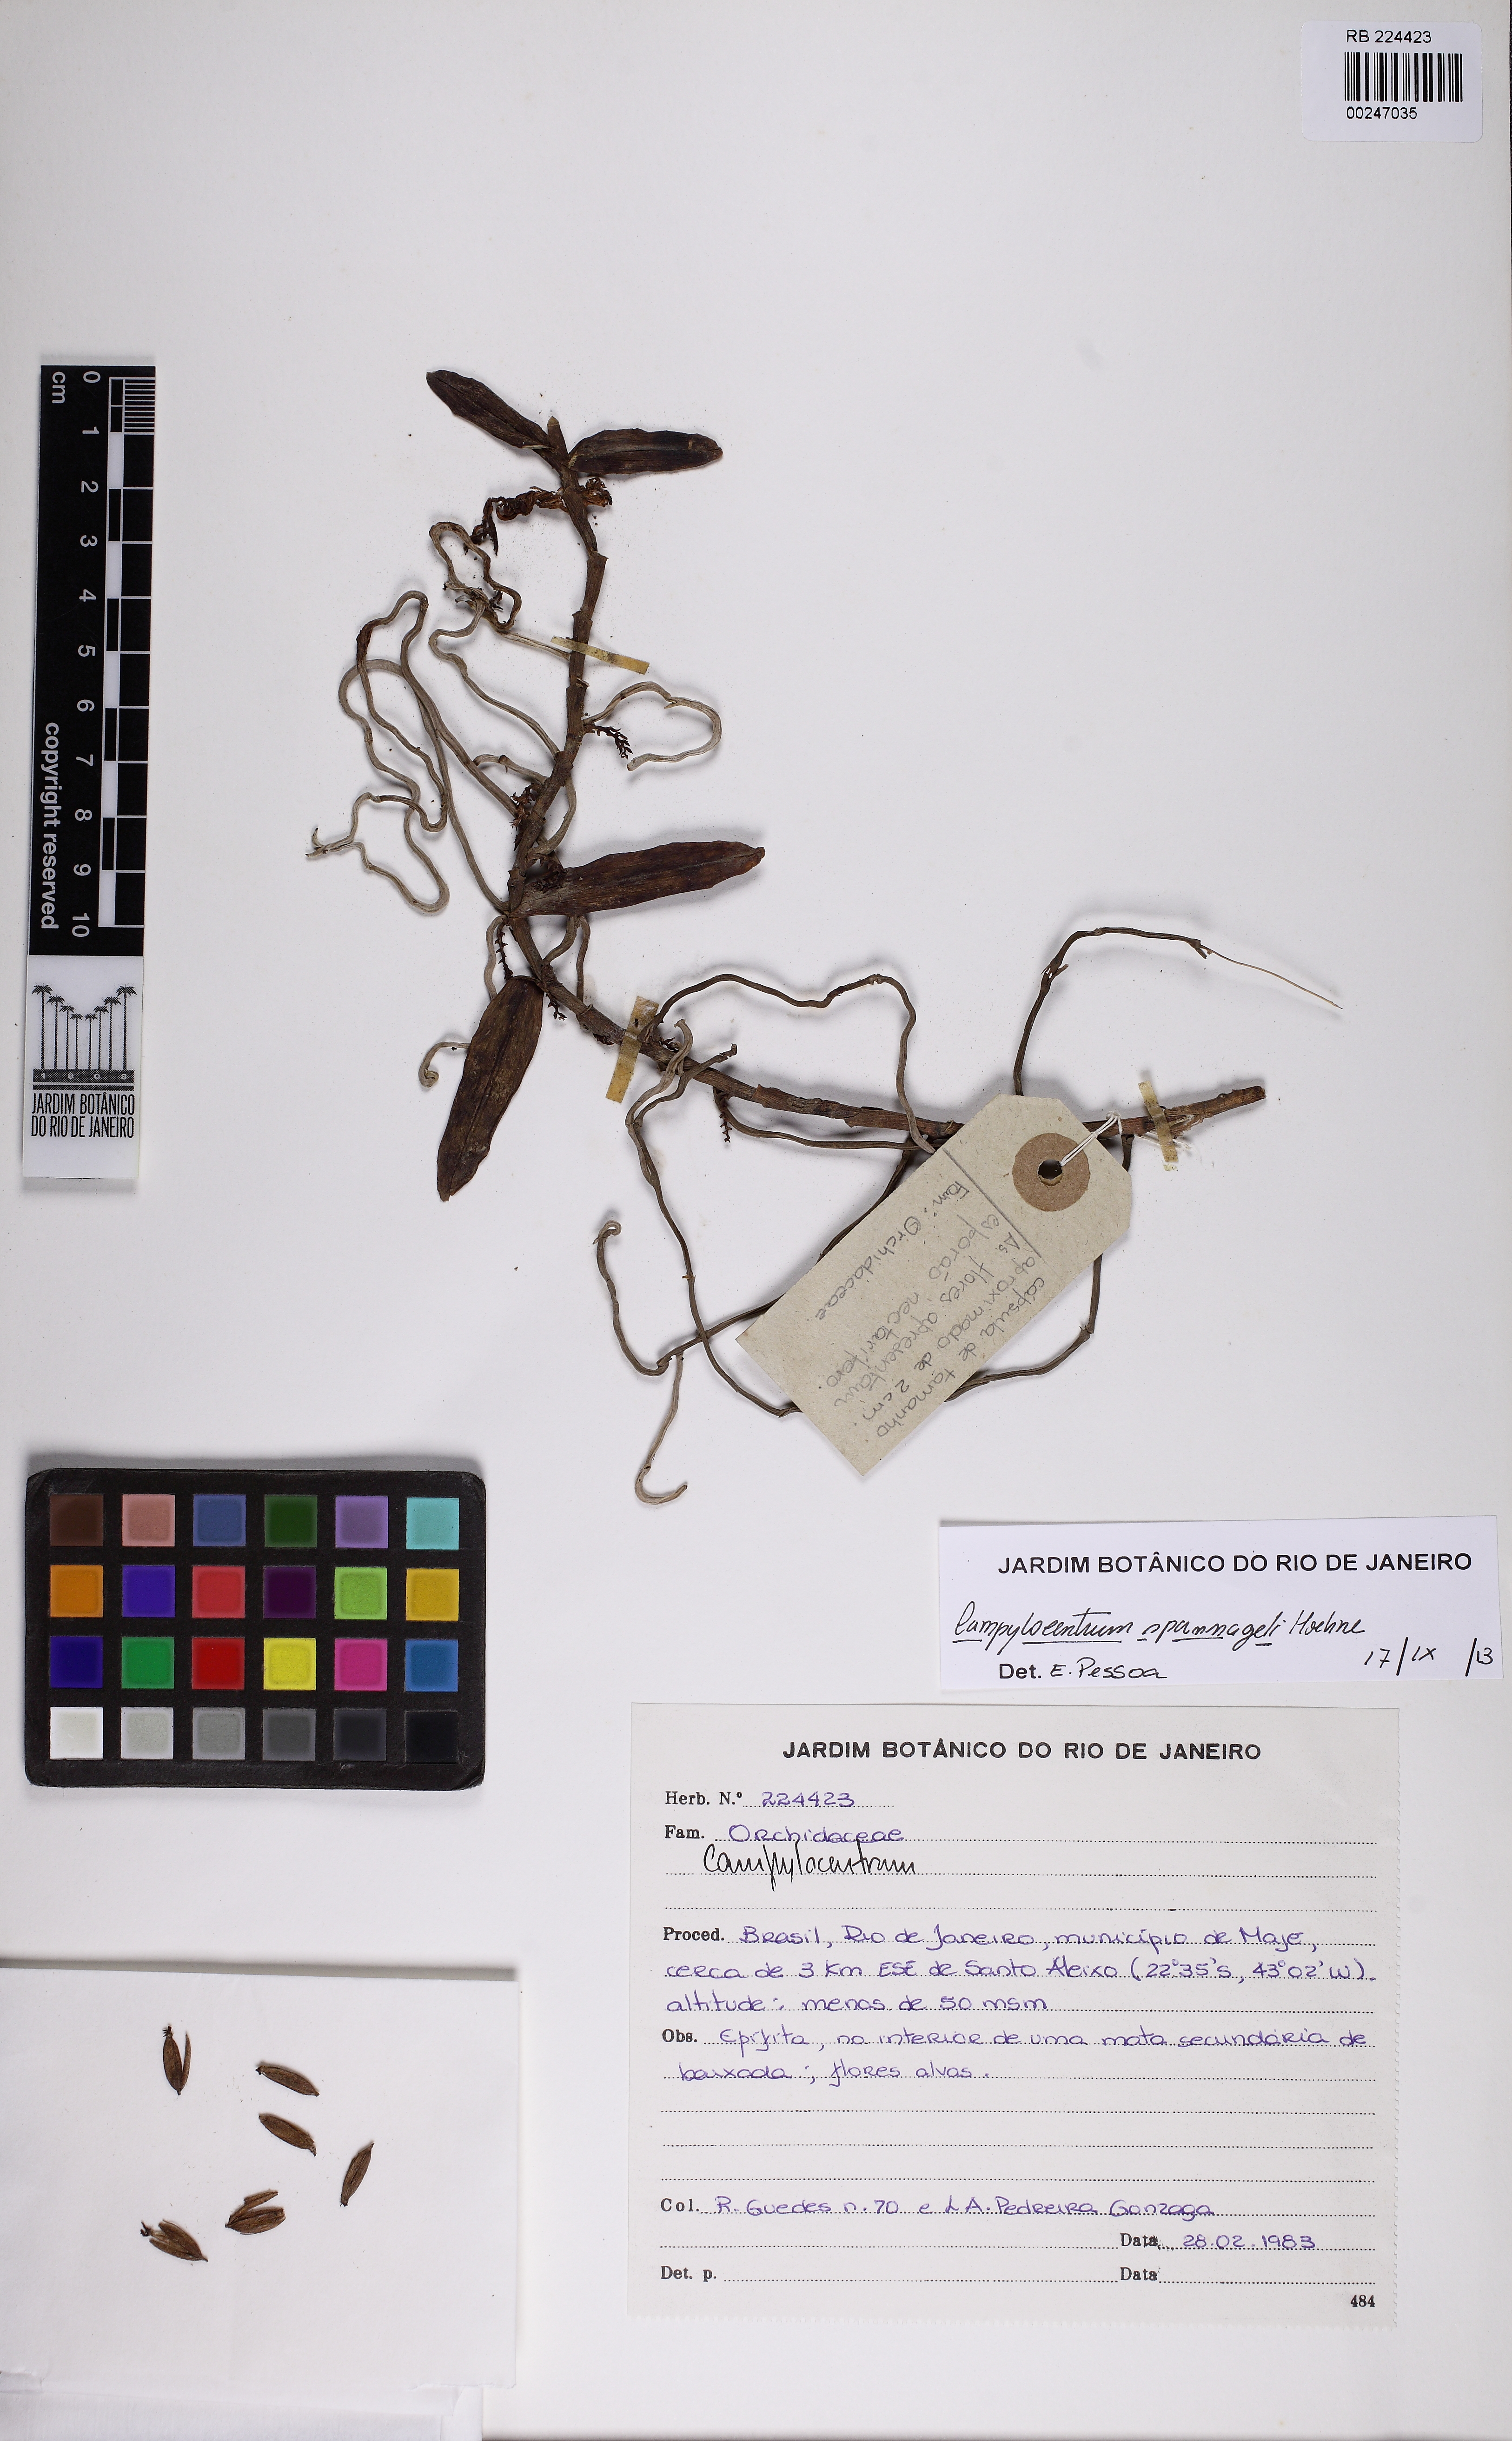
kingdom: Plantae
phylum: Tracheophyta
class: Liliopsida
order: Asparagales
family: Orchidaceae
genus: Campylocentrum
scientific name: Campylocentrum spannagelii
